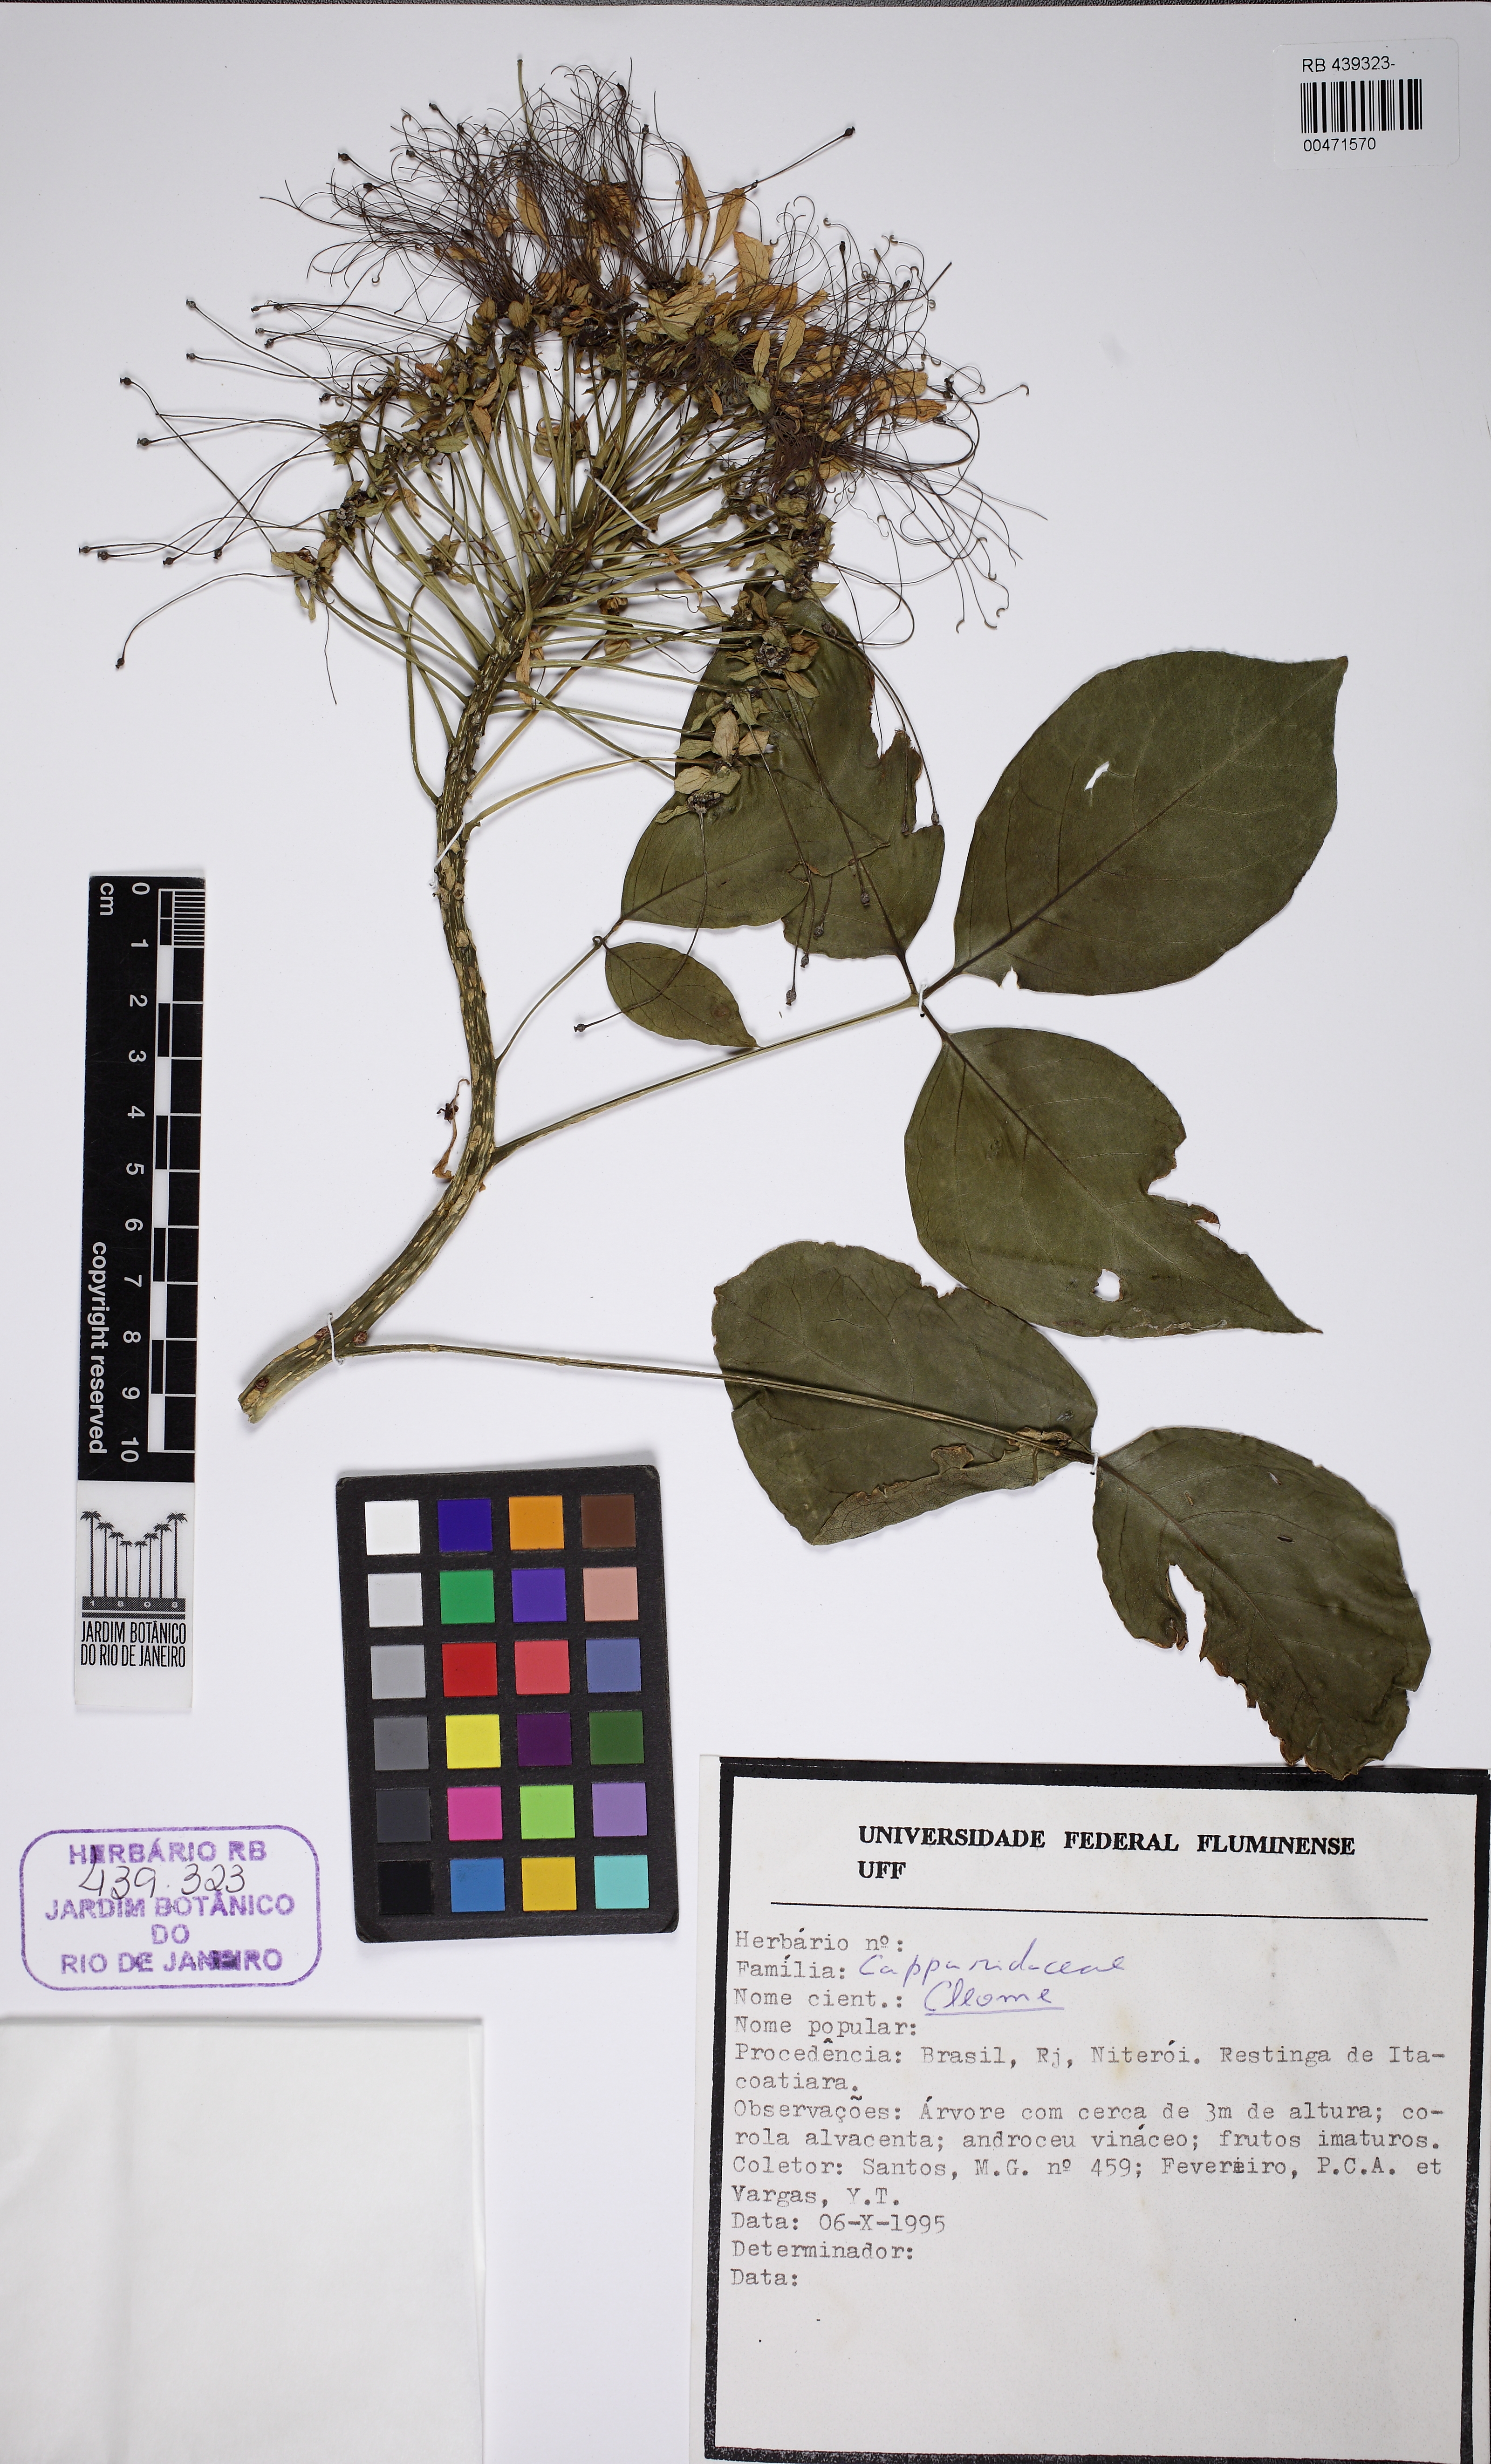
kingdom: Plantae
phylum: Tracheophyta
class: Magnoliopsida
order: Brassicales
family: Capparaceae
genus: Crateva
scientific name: Crateva tapia
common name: Garlic-pear
